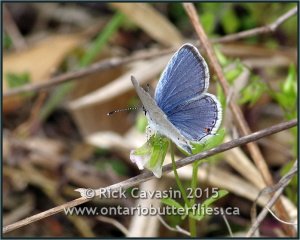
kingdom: Animalia
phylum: Arthropoda
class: Insecta
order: Lepidoptera
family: Lycaenidae
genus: Elkalyce
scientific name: Elkalyce comyntas
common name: Eastern Tailed-Blue
